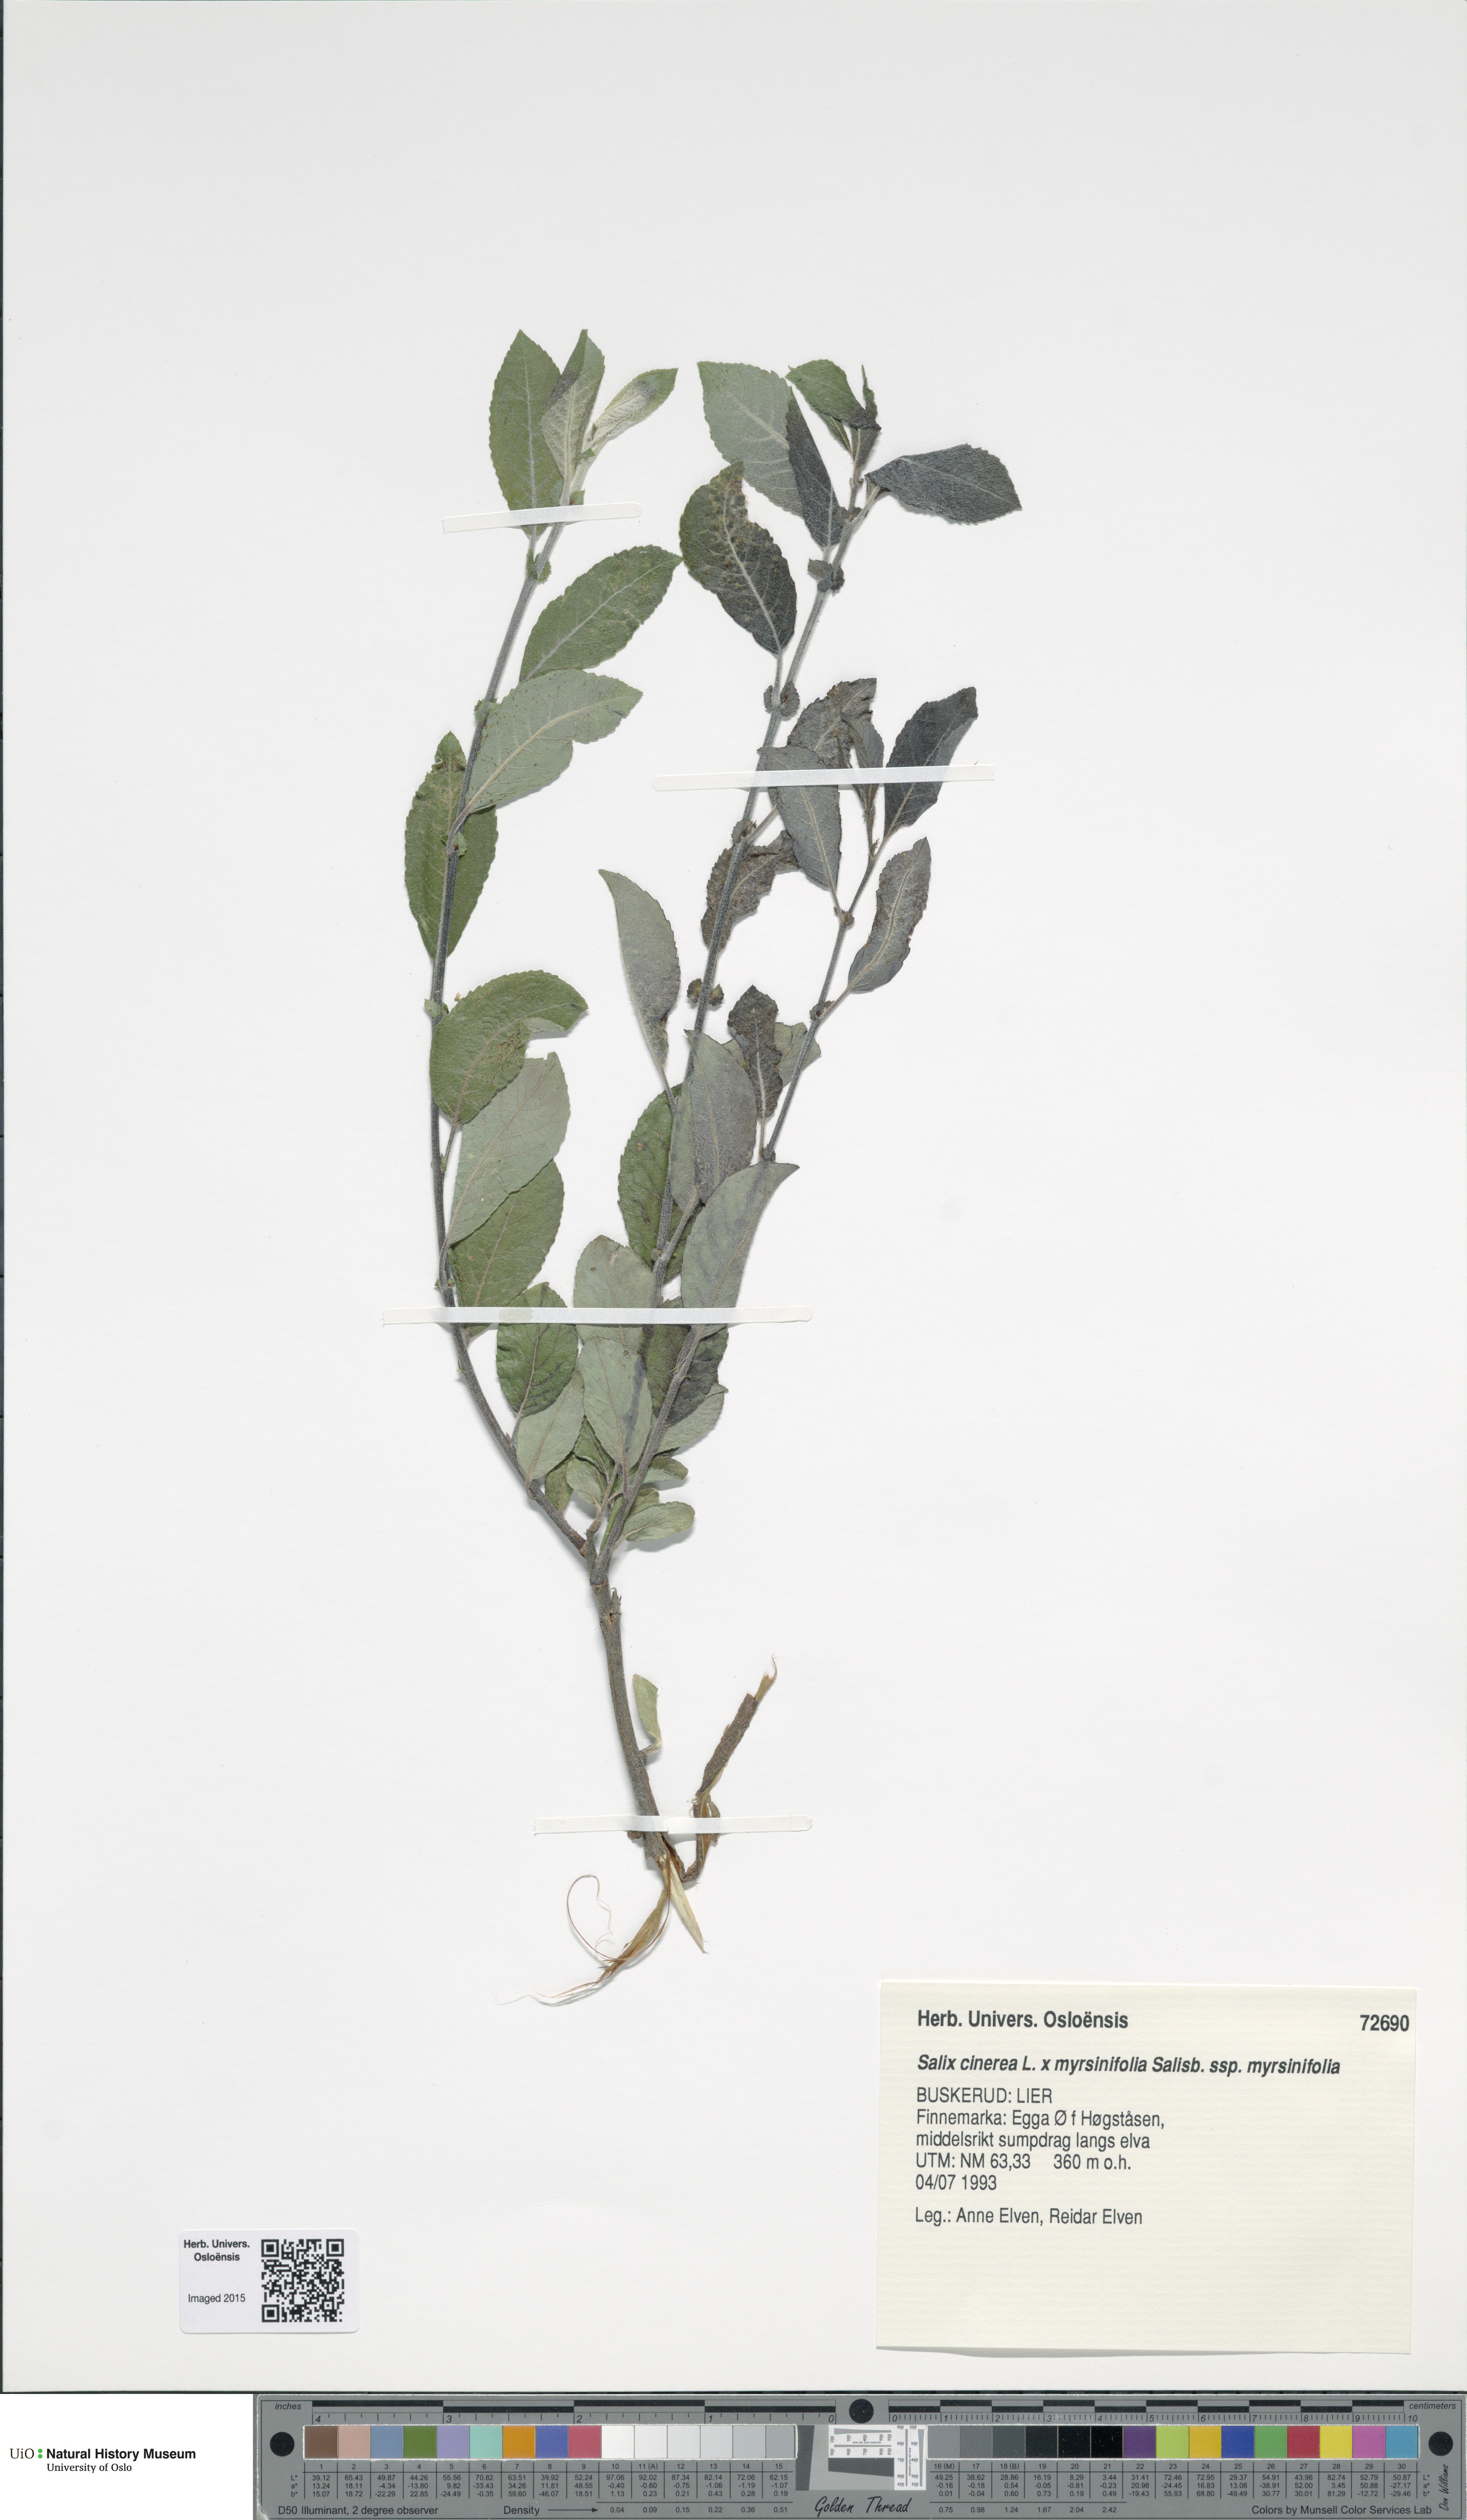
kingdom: Plantae
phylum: Tracheophyta
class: Magnoliopsida
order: Malpighiales
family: Salicaceae
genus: Salix
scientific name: Salix
